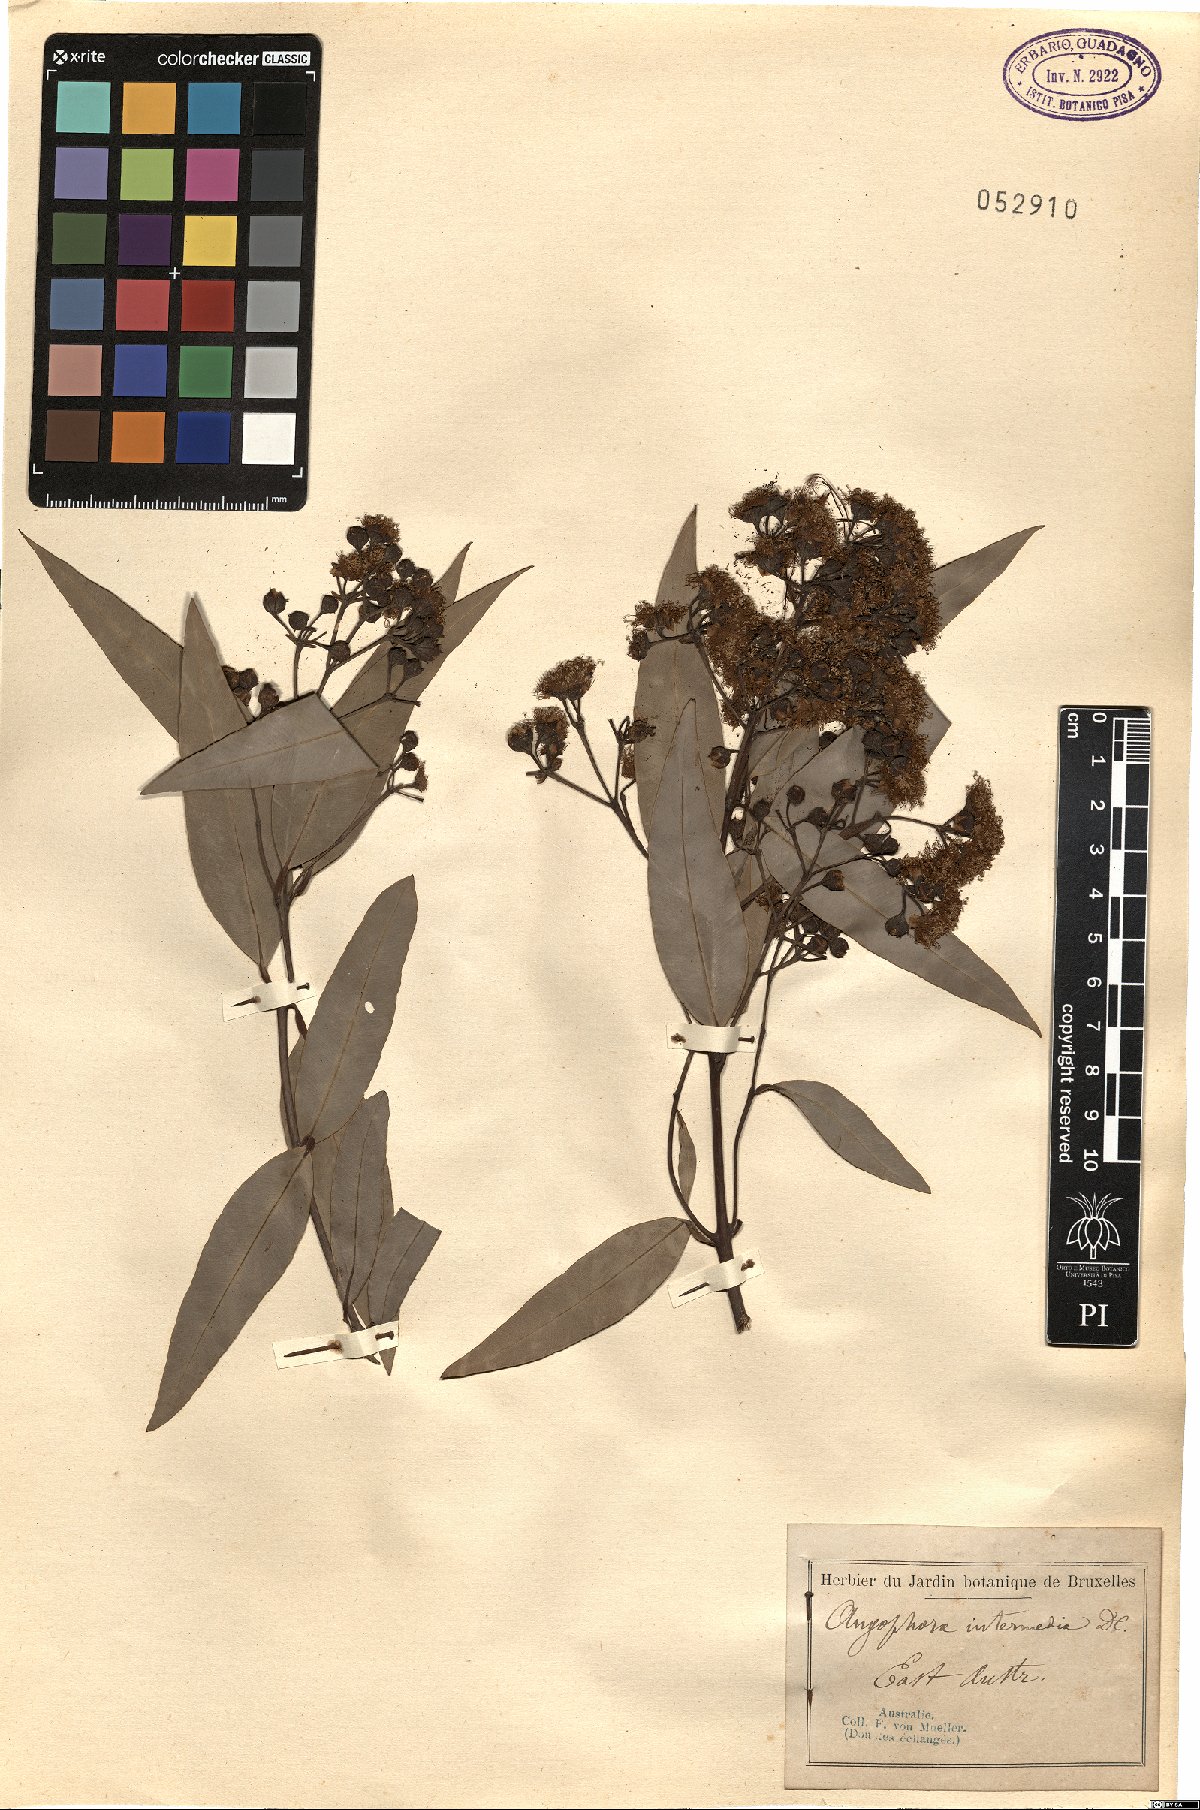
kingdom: Plantae
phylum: Tracheophyta
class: Magnoliopsida
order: Myrtales
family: Myrtaceae
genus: Angophora
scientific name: Angophora floribunda
